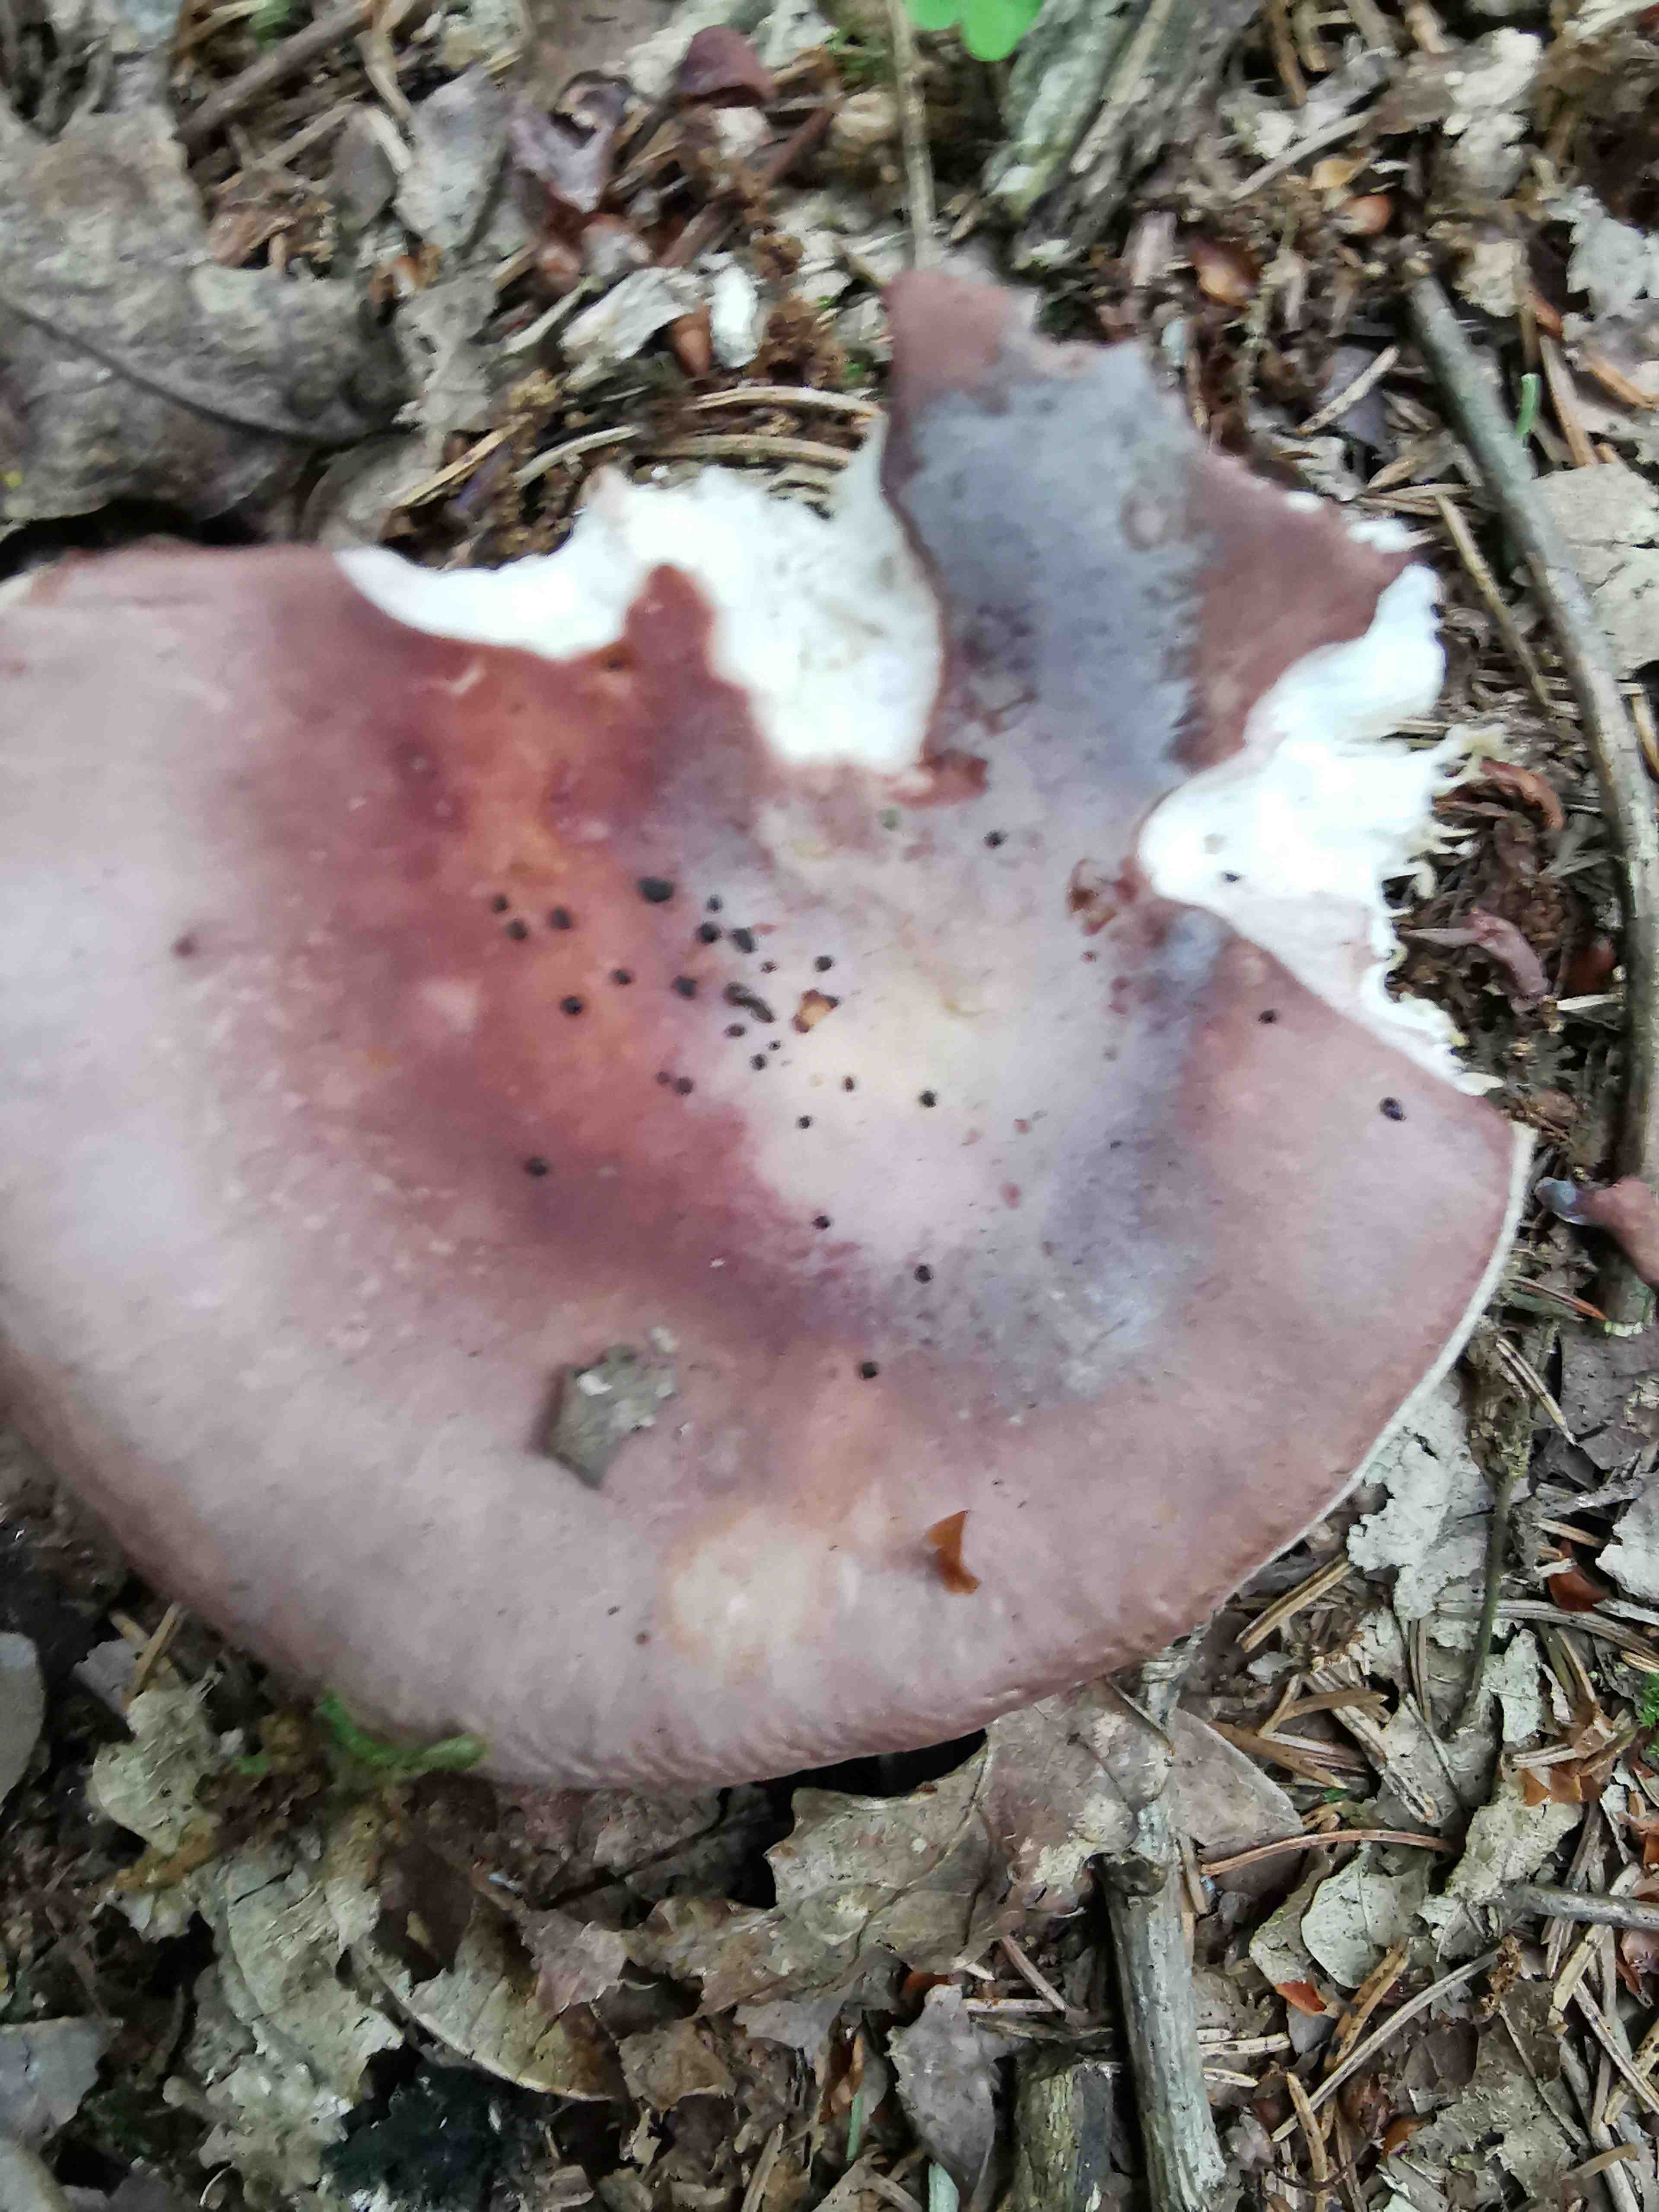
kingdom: Fungi
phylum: Basidiomycota
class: Agaricomycetes
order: Russulales
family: Russulaceae
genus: Russula
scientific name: Russula vesca
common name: spiselig skørhat
